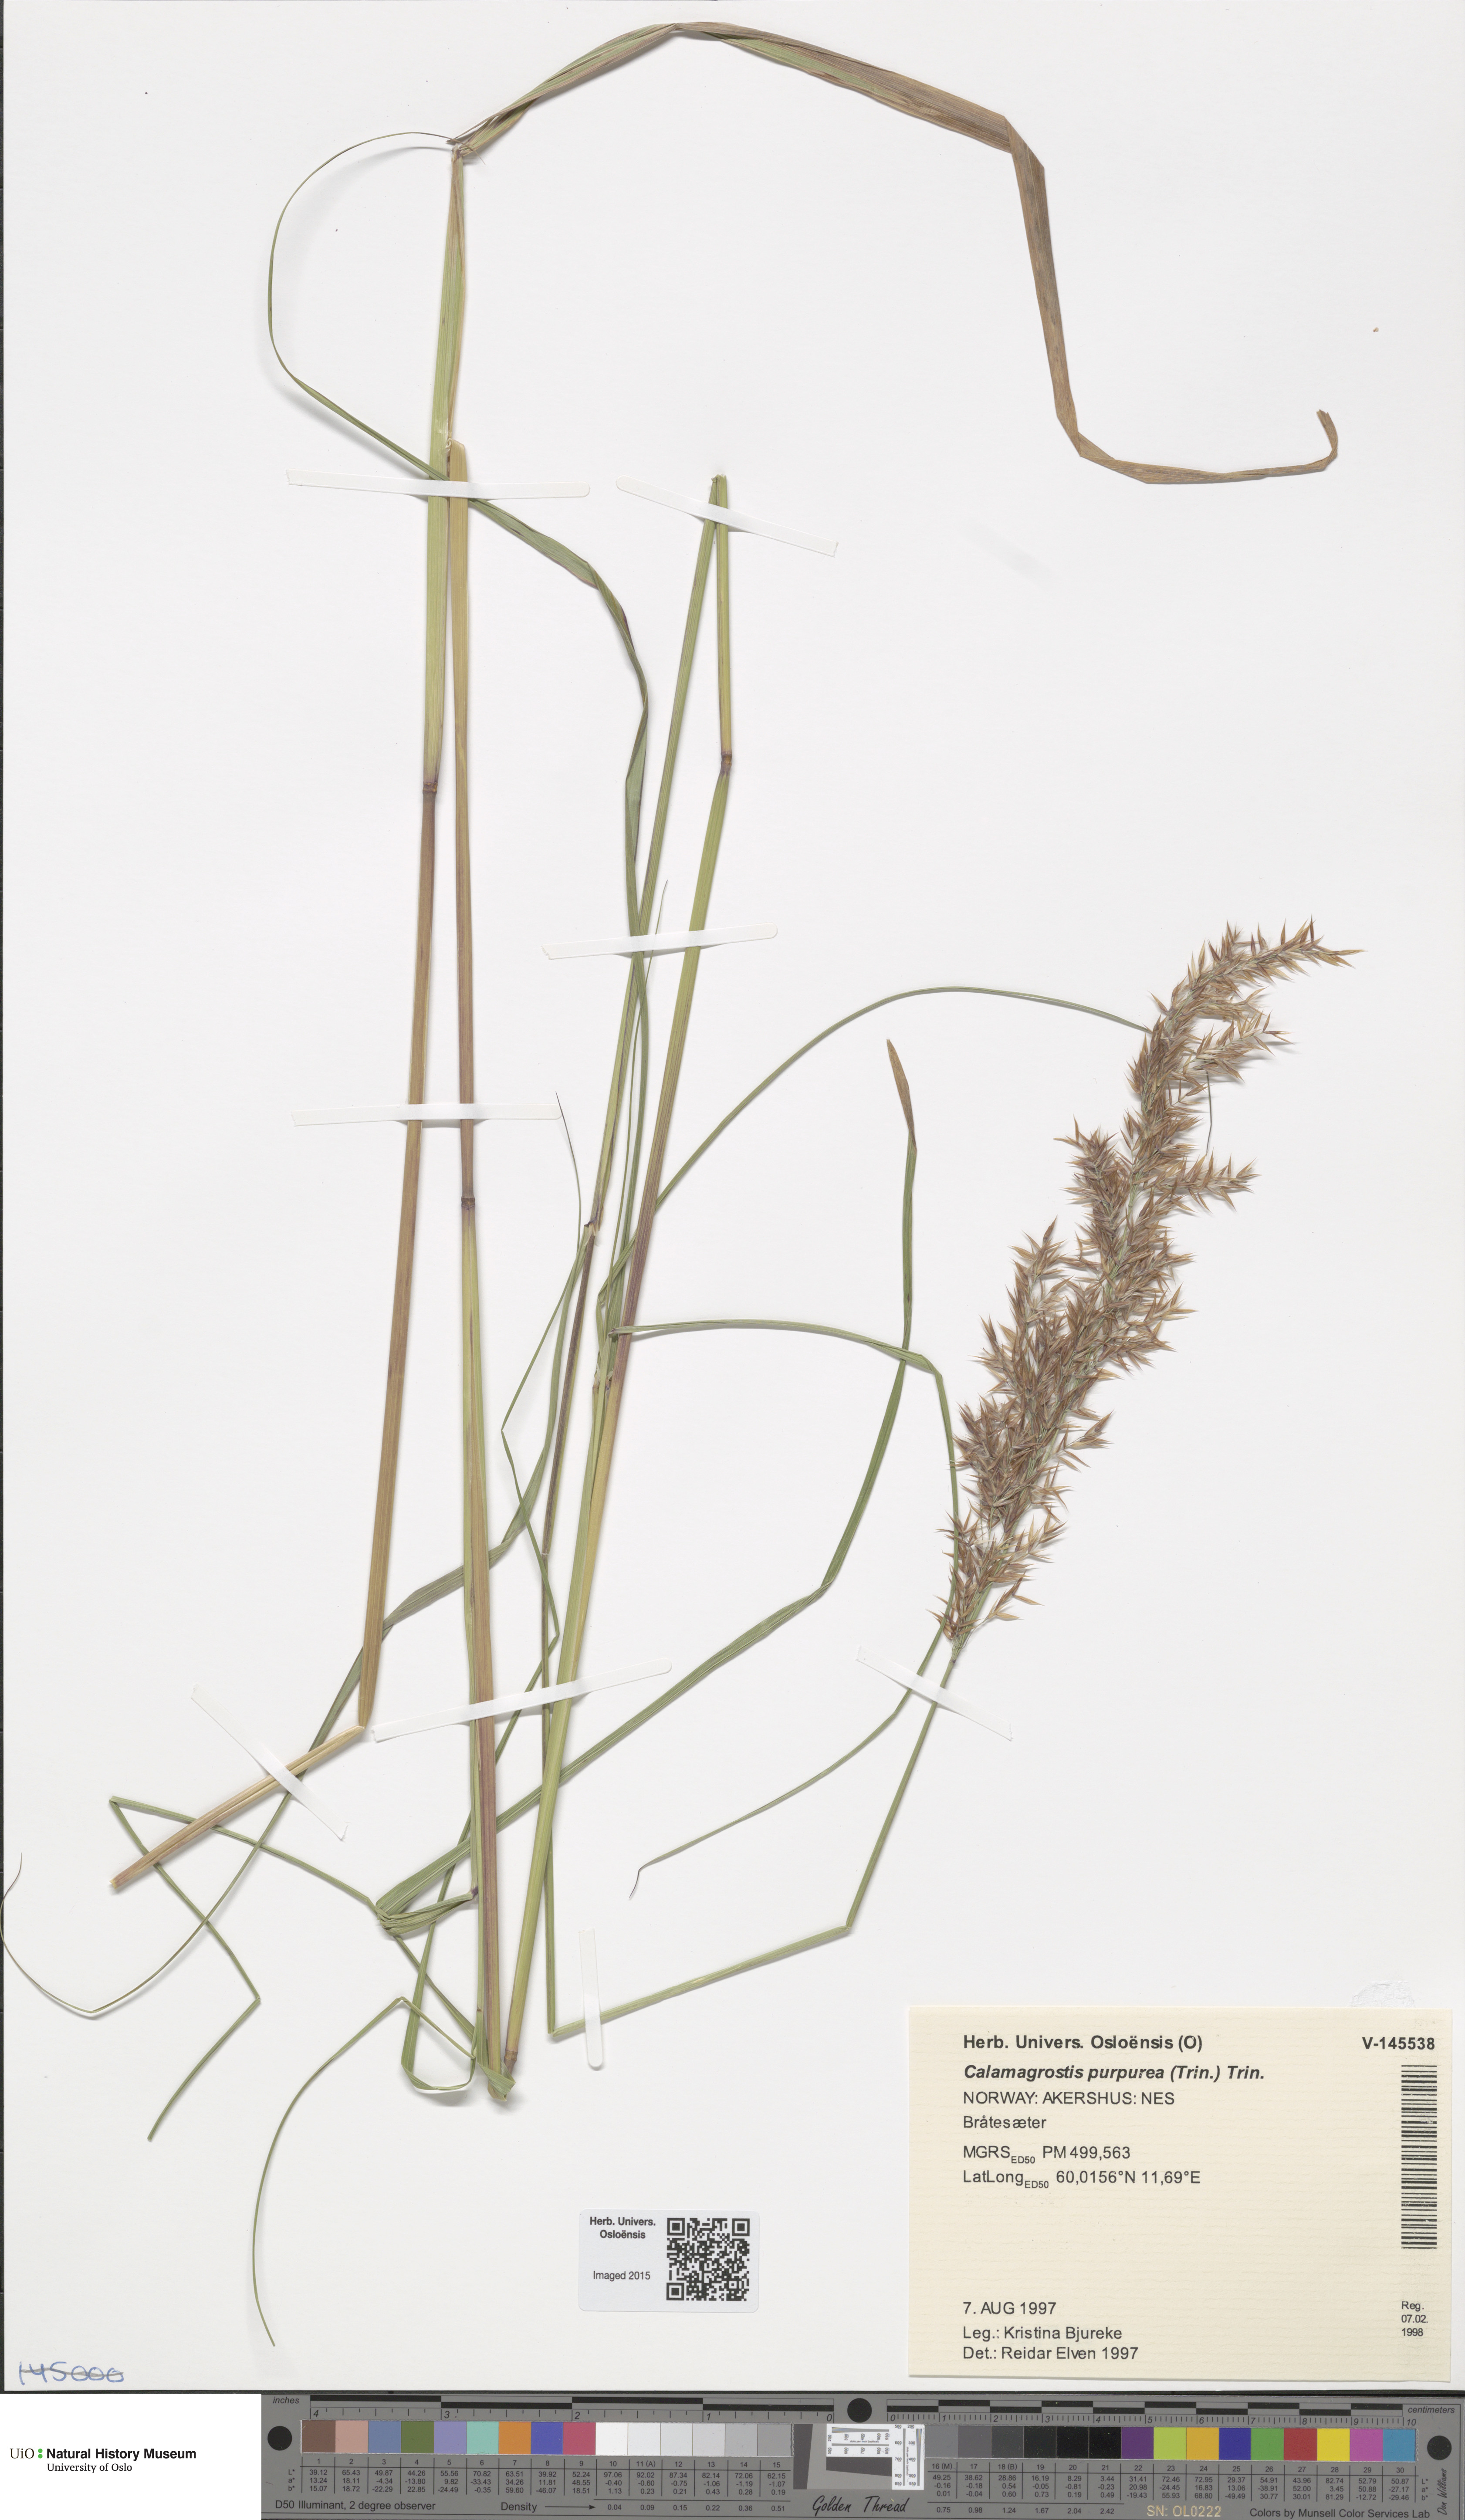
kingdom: Plantae
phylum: Tracheophyta
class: Liliopsida
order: Poales
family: Poaceae
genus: Calamagrostis
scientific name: Calamagrostis purpurea
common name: Scandinavian small-reed
